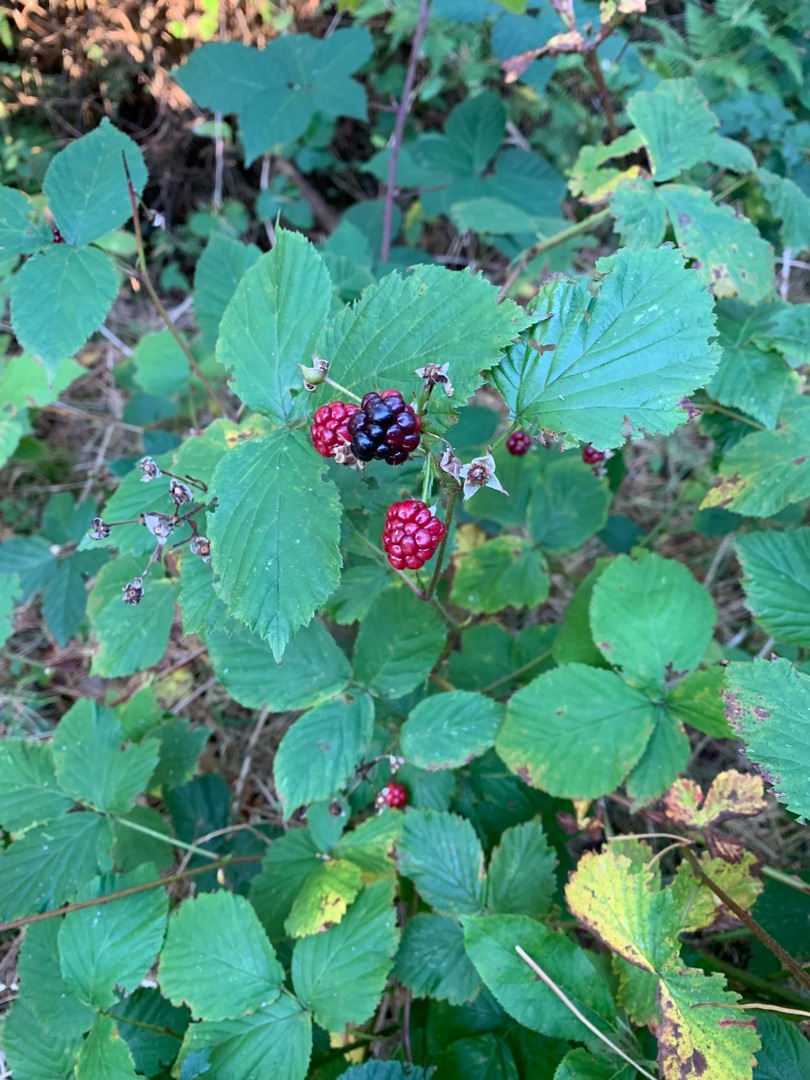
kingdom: Plantae
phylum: Tracheophyta
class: Magnoliopsida
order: Rosales
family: Rosaceae
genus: Rubus
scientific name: Rubus
